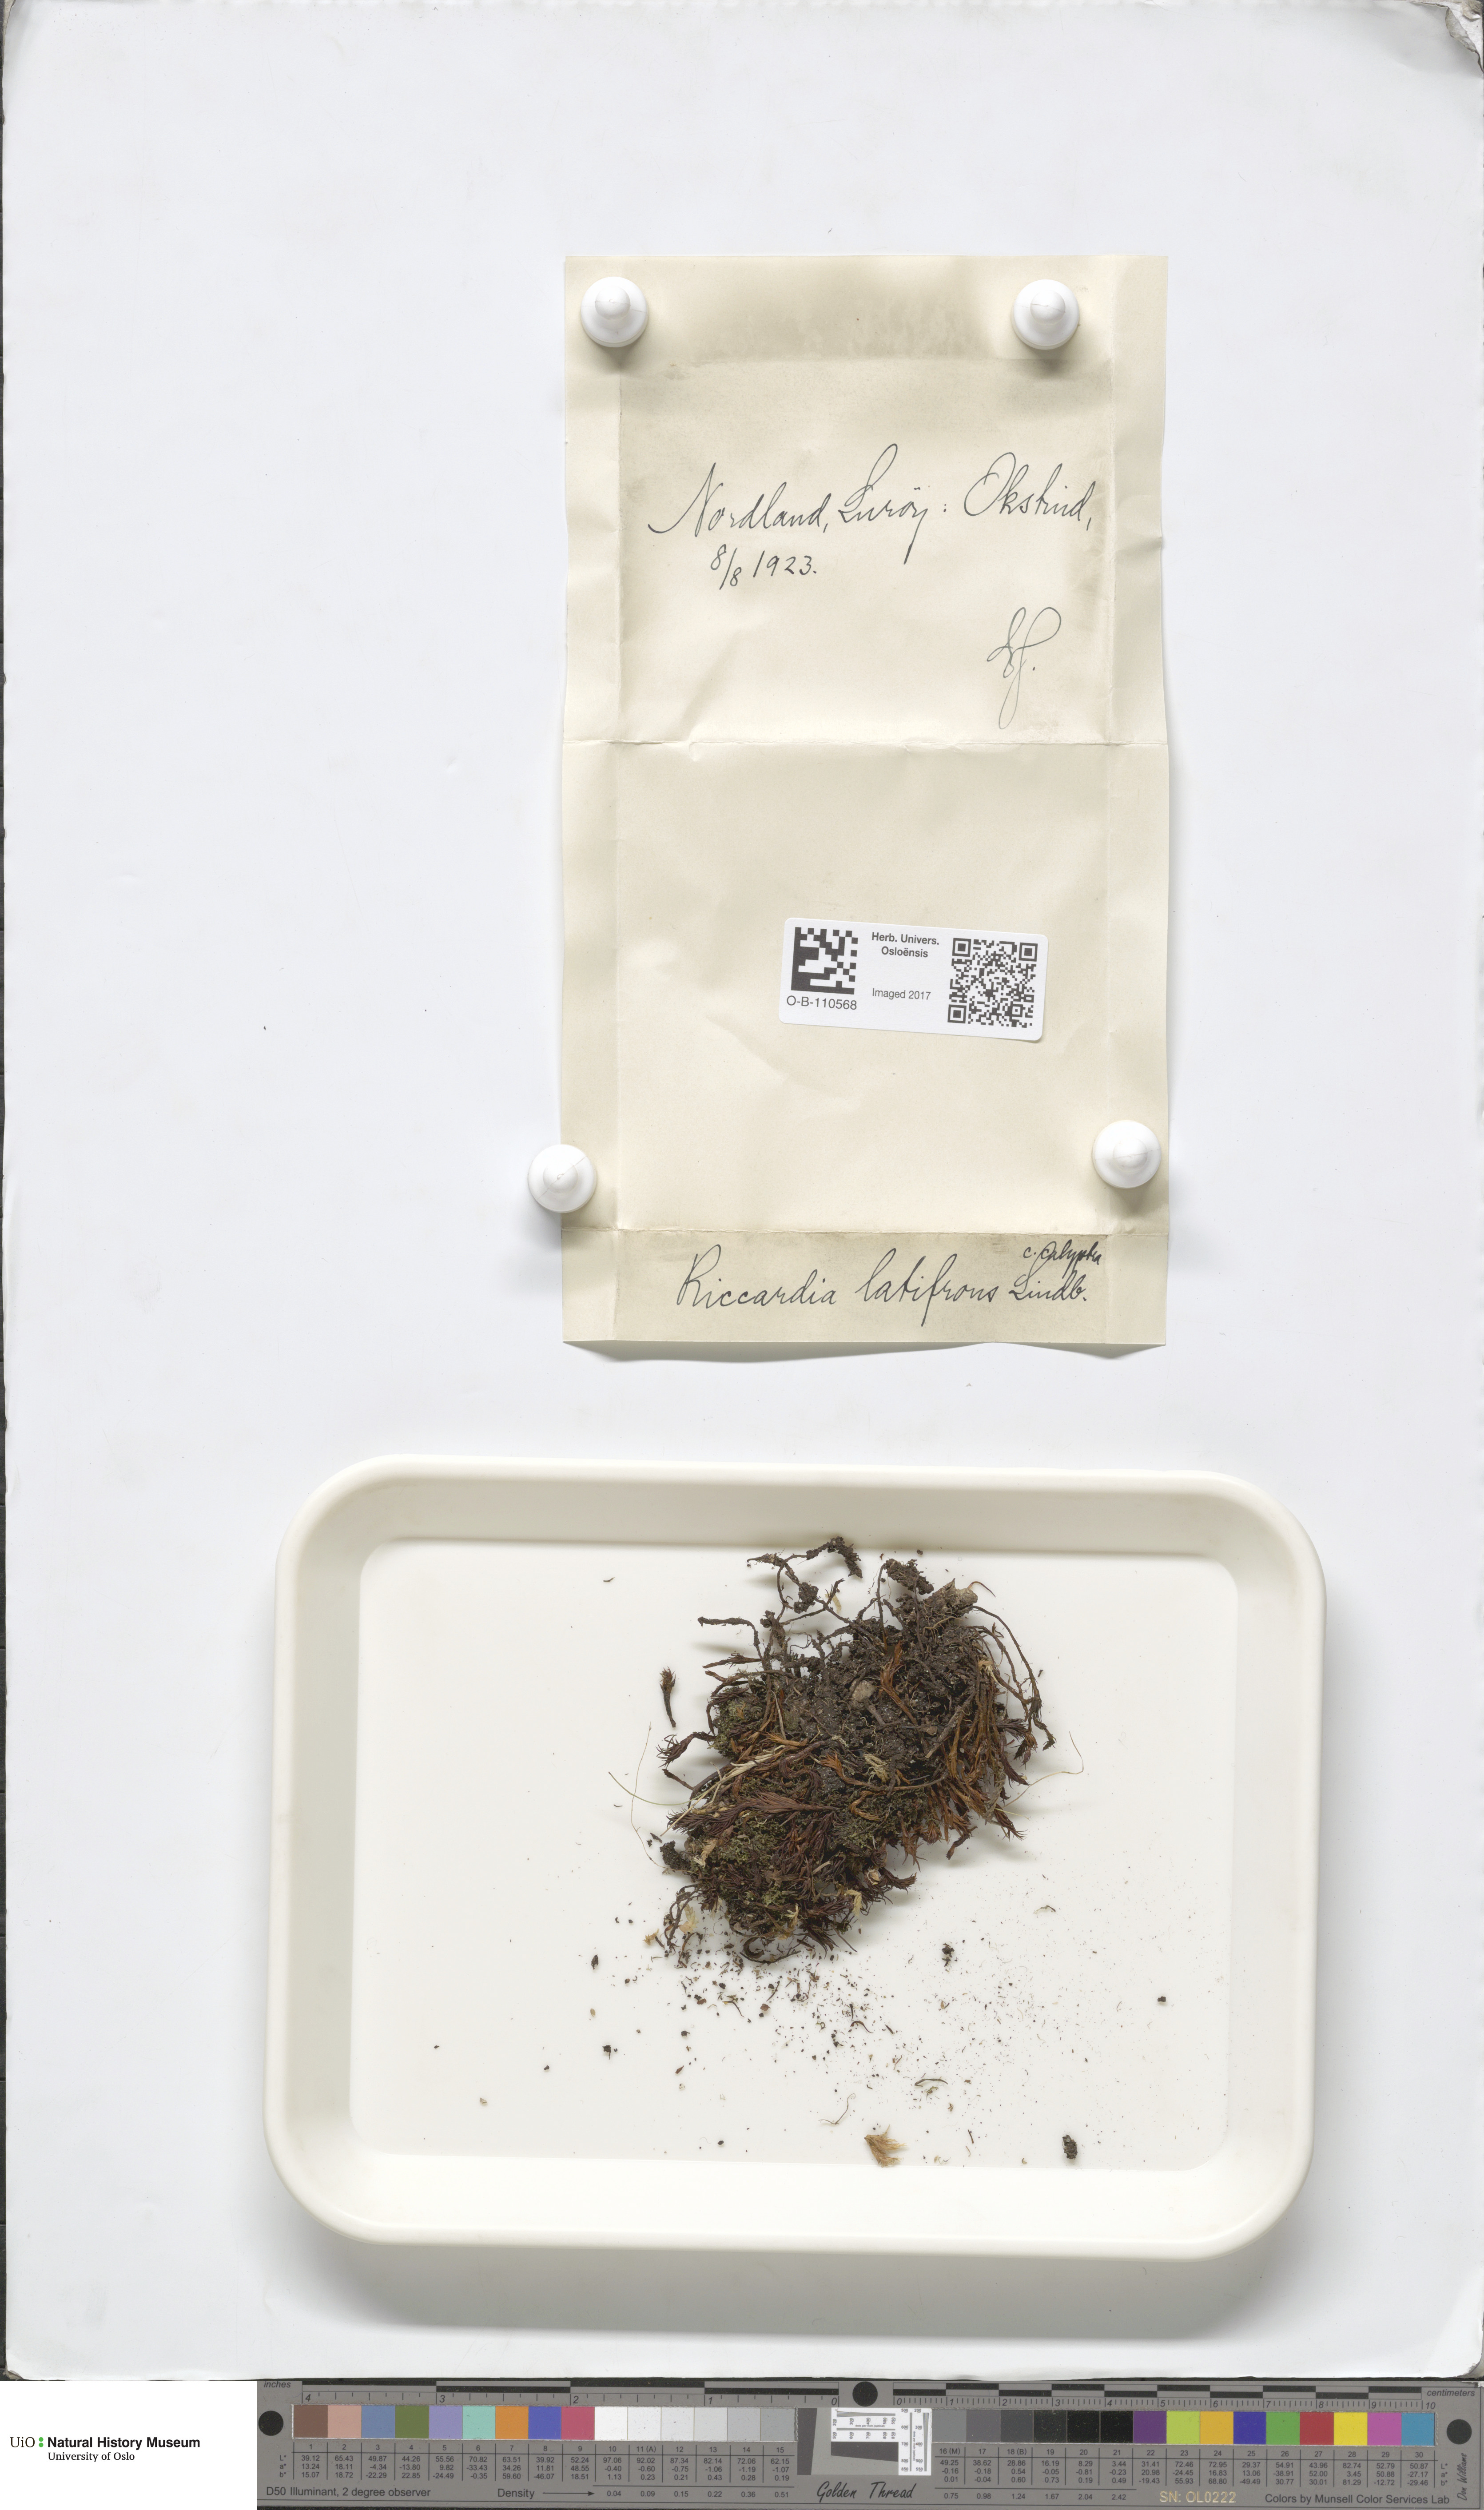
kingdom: Plantae
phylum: Marchantiophyta
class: Jungermanniopsida
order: Metzgeriales
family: Aneuraceae
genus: Riccardia
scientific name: Riccardia latifrons
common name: Bog germanderwort
